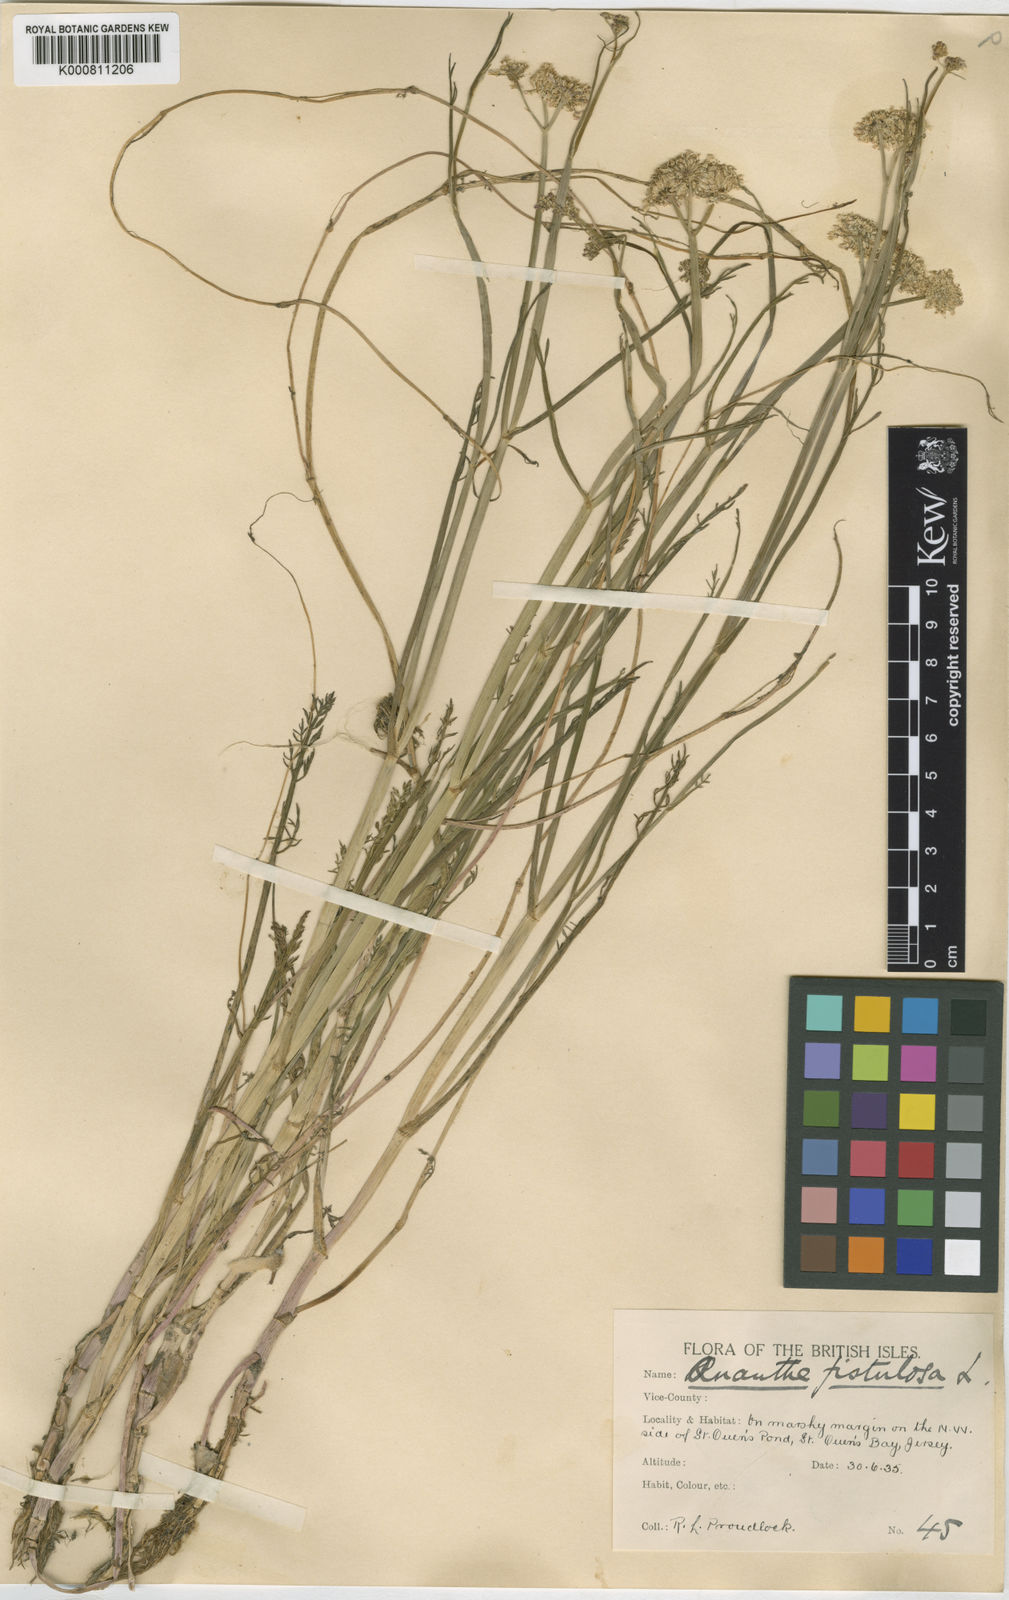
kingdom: Plantae
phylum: Tracheophyta
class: Magnoliopsida
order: Apiales
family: Apiaceae
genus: Oenanthe
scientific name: Oenanthe fistulosa
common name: Tubular water-dropwort
